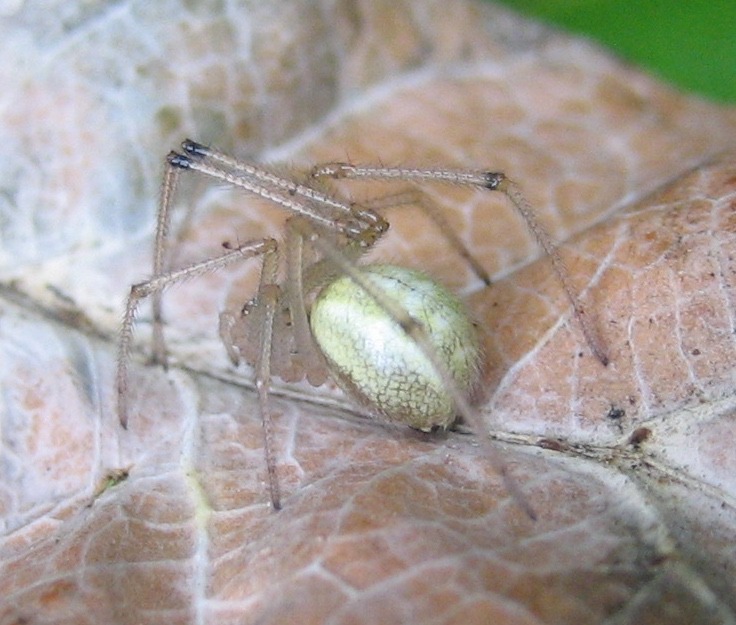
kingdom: Animalia
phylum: Arthropoda
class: Arachnida
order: Araneae
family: Theridiidae
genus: Enoplognatha
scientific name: Enoplognatha
